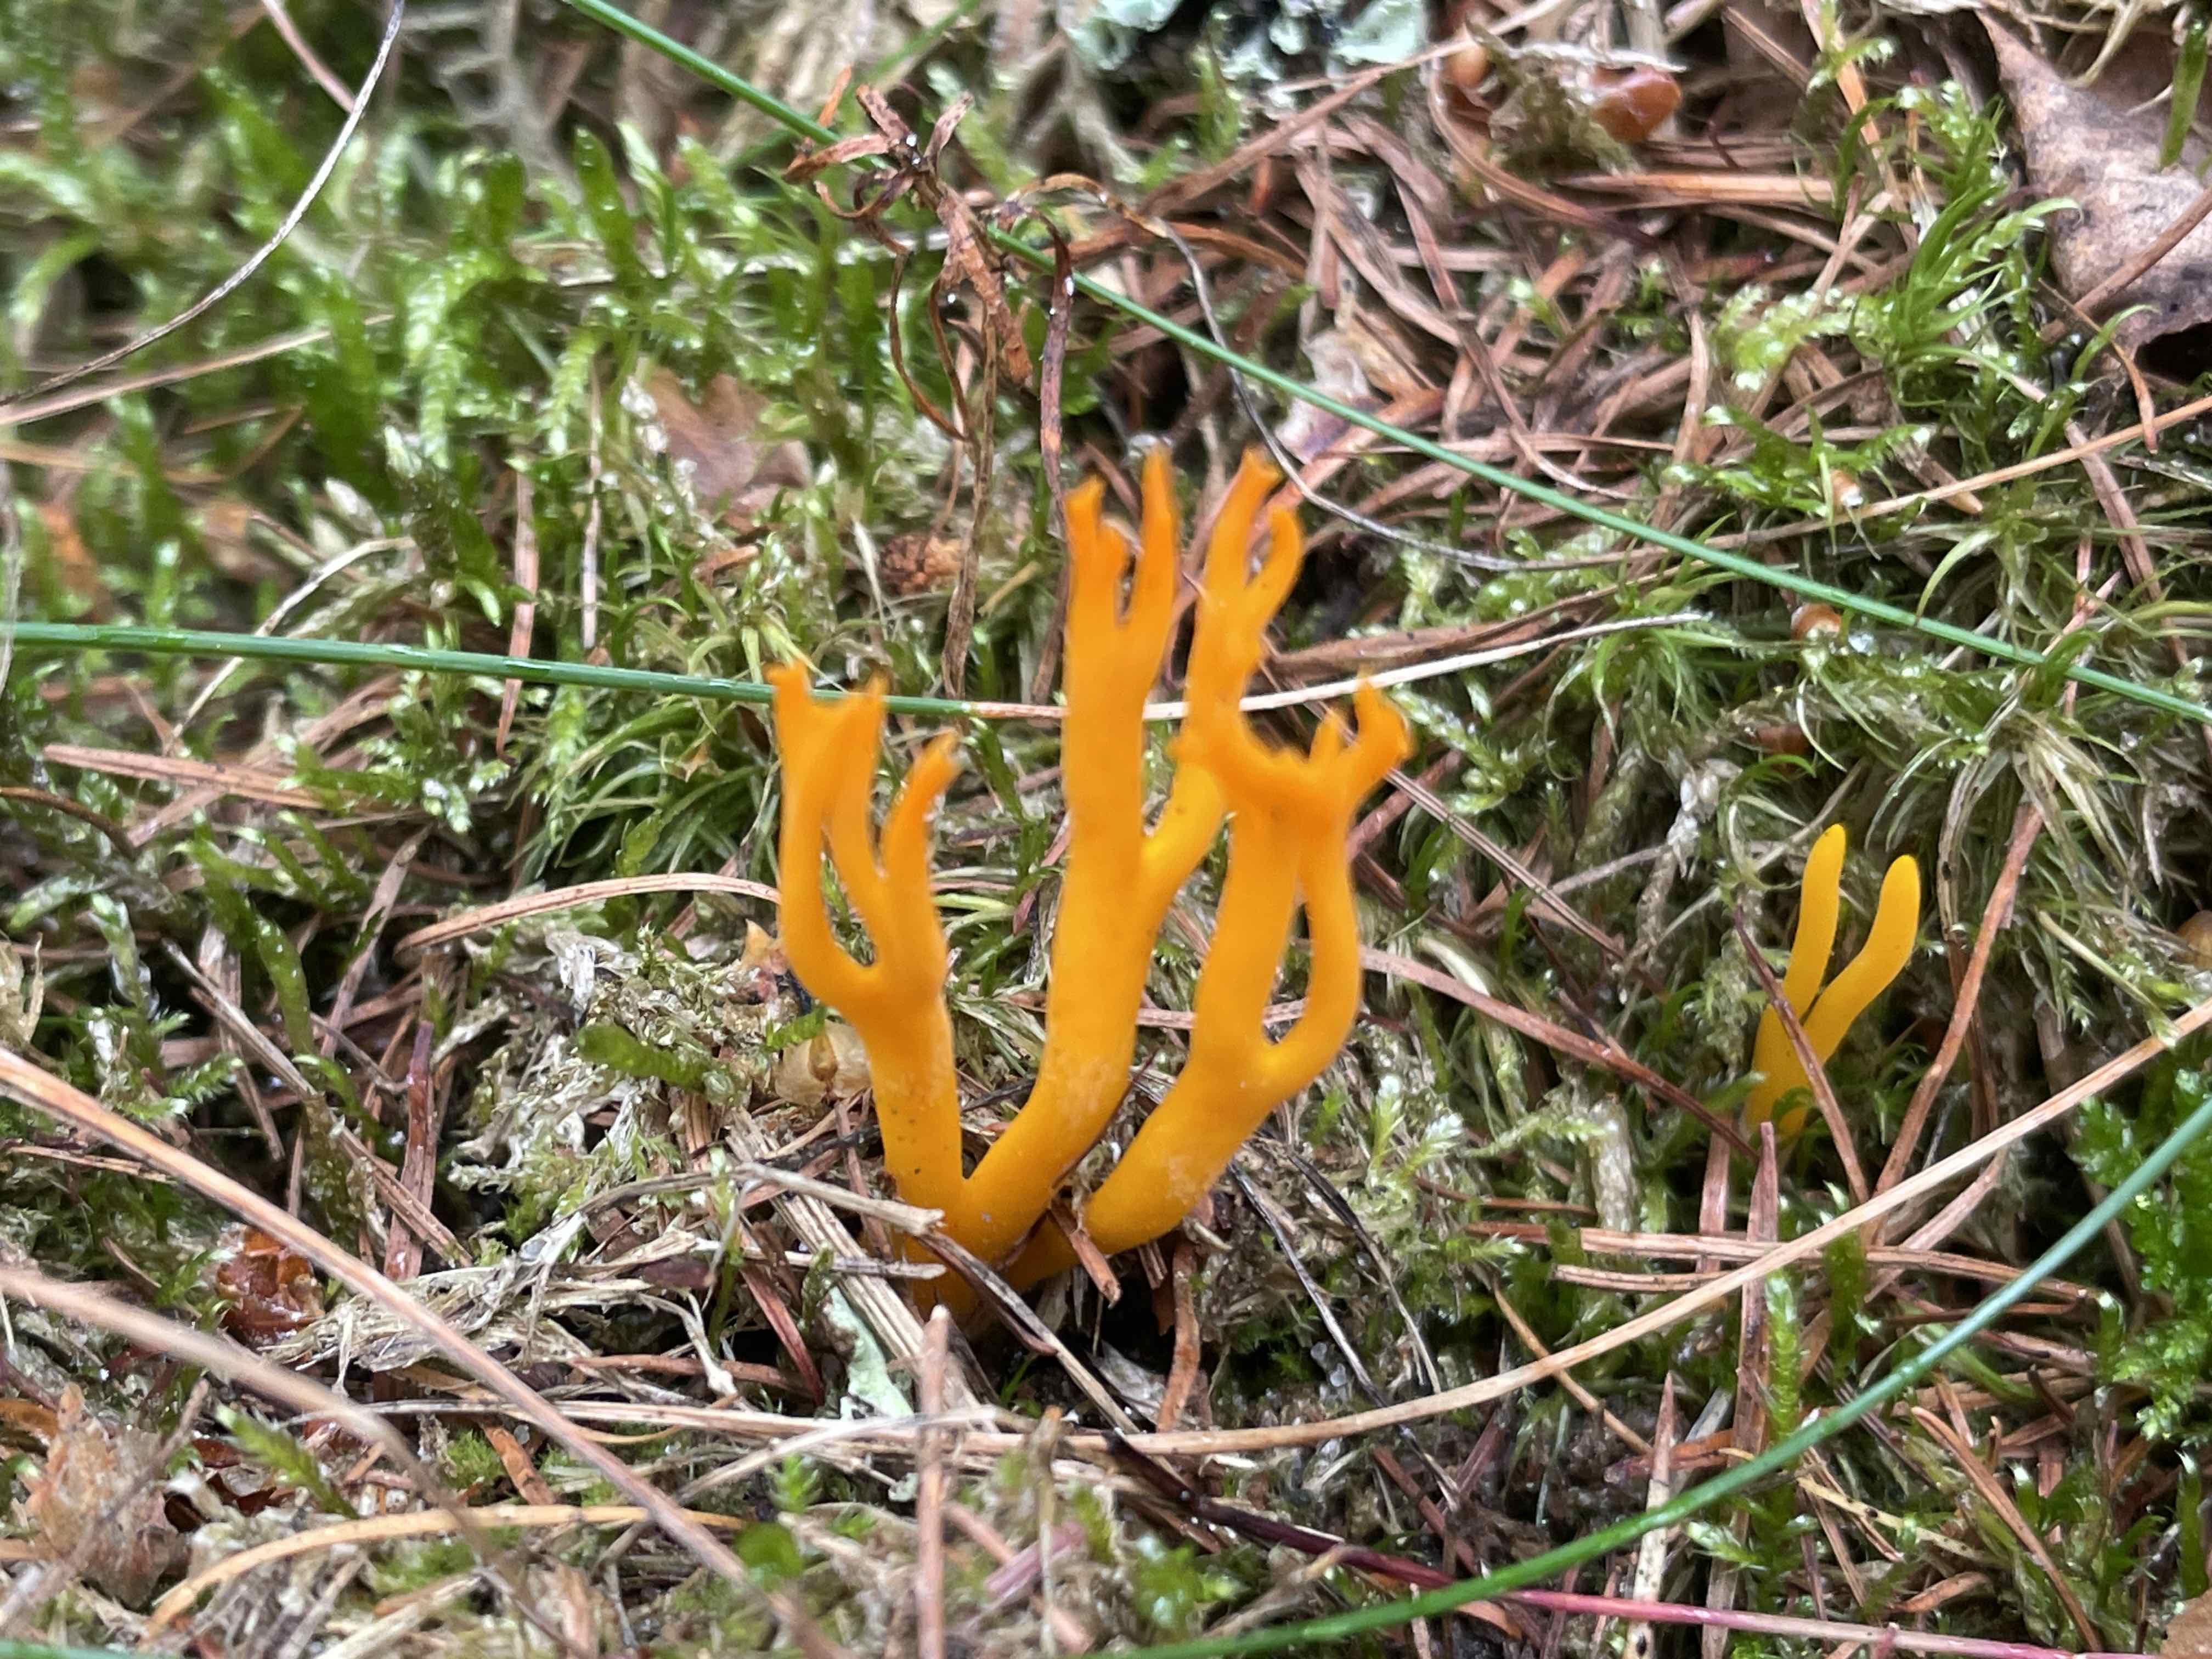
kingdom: Fungi
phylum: Basidiomycota
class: Dacrymycetes
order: Dacrymycetales
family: Dacrymycetaceae
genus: Calocera
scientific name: Calocera viscosa
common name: almindelig guldgaffel
